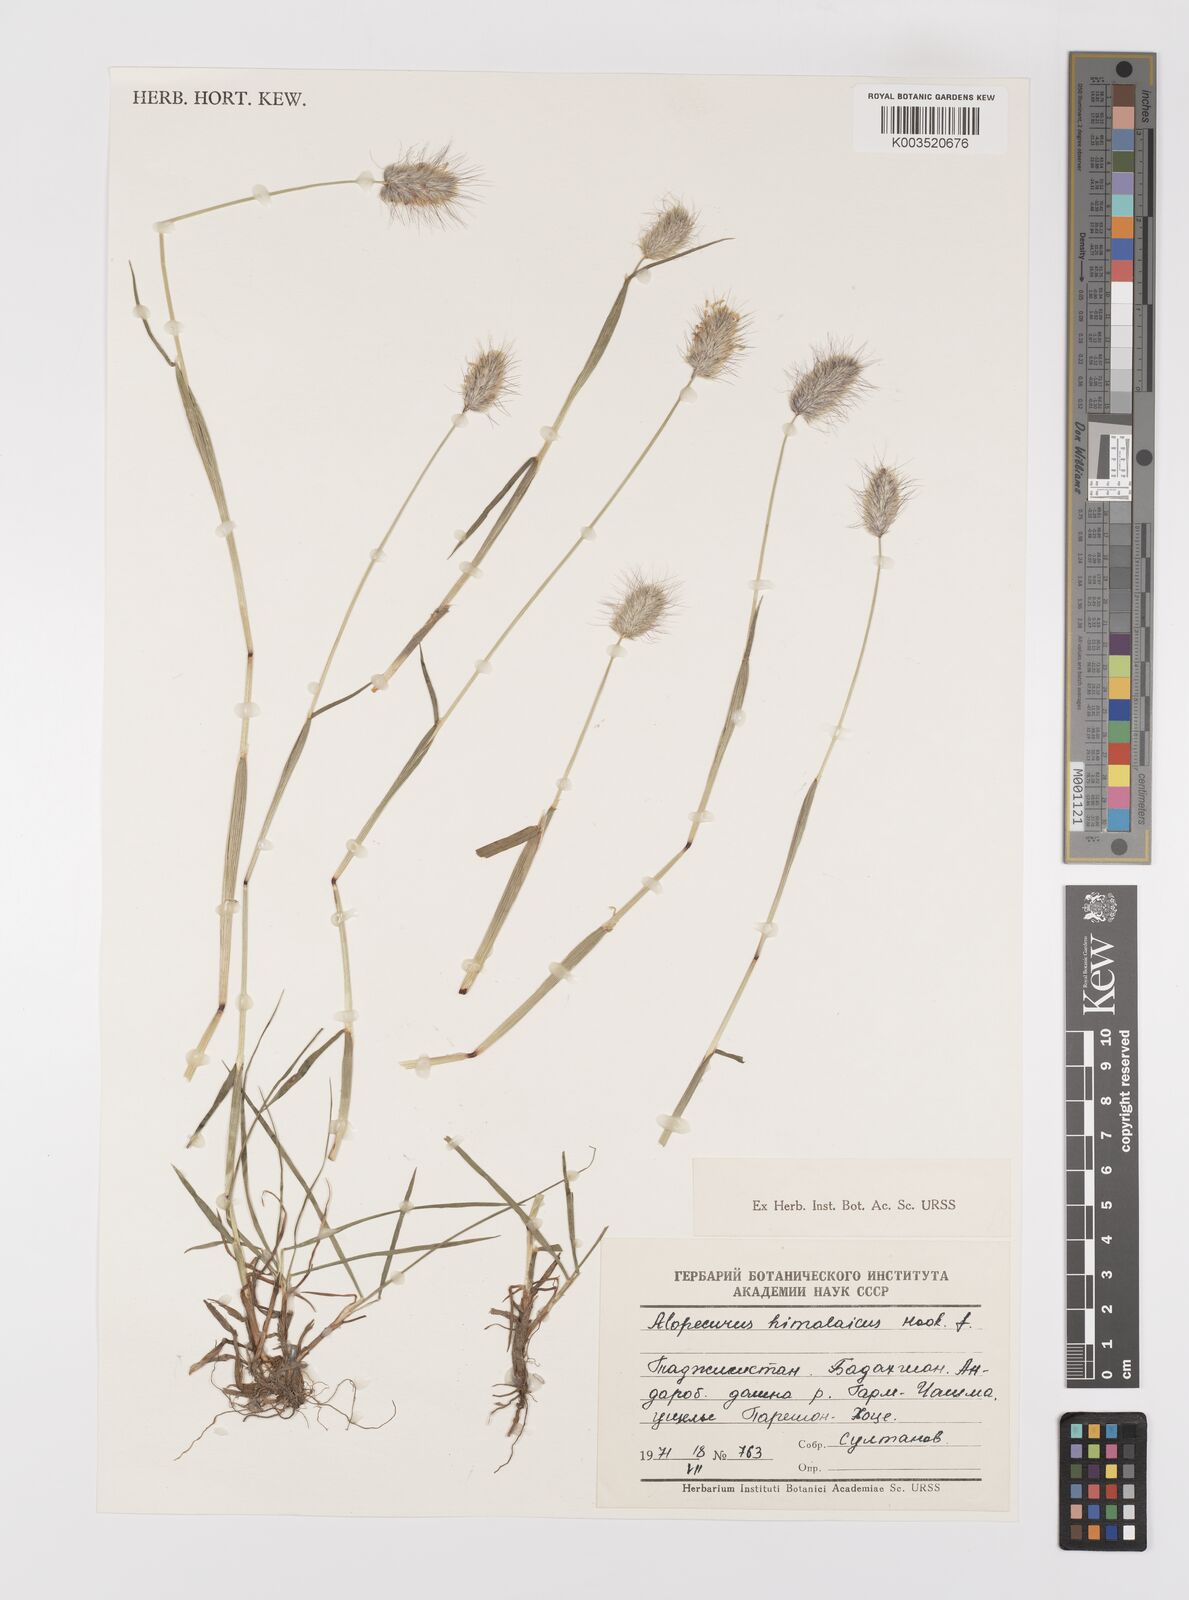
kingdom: Plantae
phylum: Tracheophyta
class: Liliopsida
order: Poales
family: Poaceae
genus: Alopecurus
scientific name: Alopecurus himalaicus
